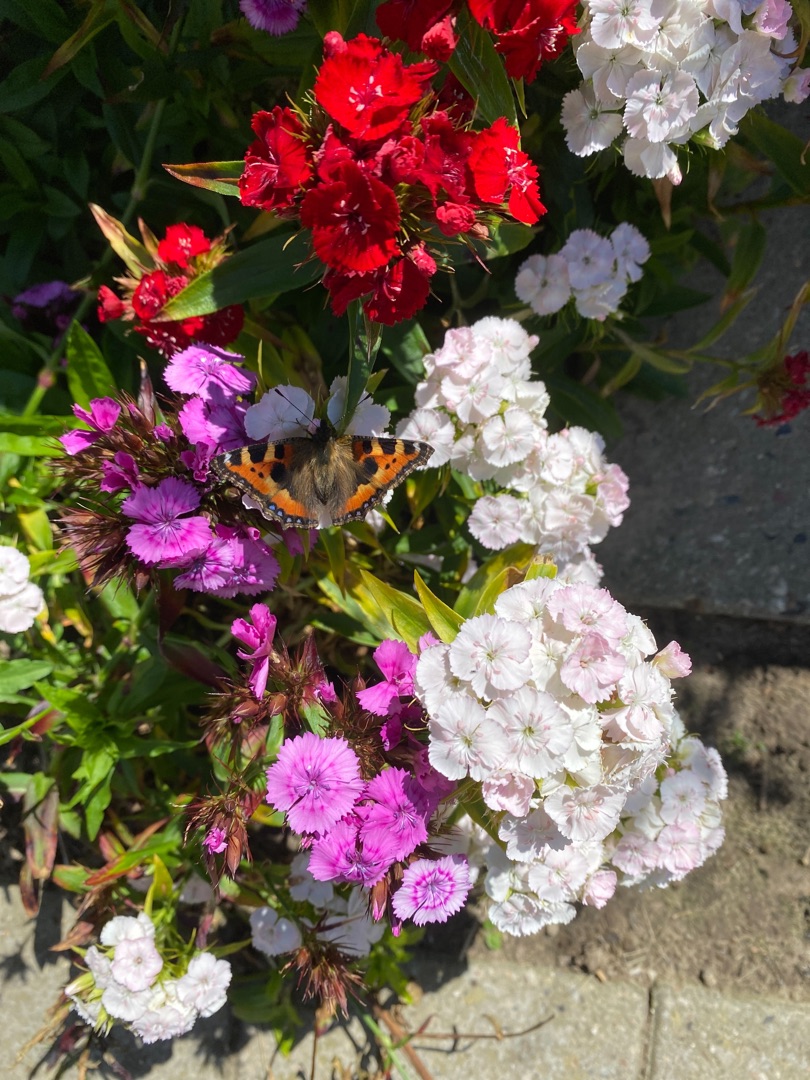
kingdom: Animalia
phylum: Arthropoda
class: Insecta
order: Lepidoptera
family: Nymphalidae
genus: Aglais
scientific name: Aglais urticae
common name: Nældens takvinge
